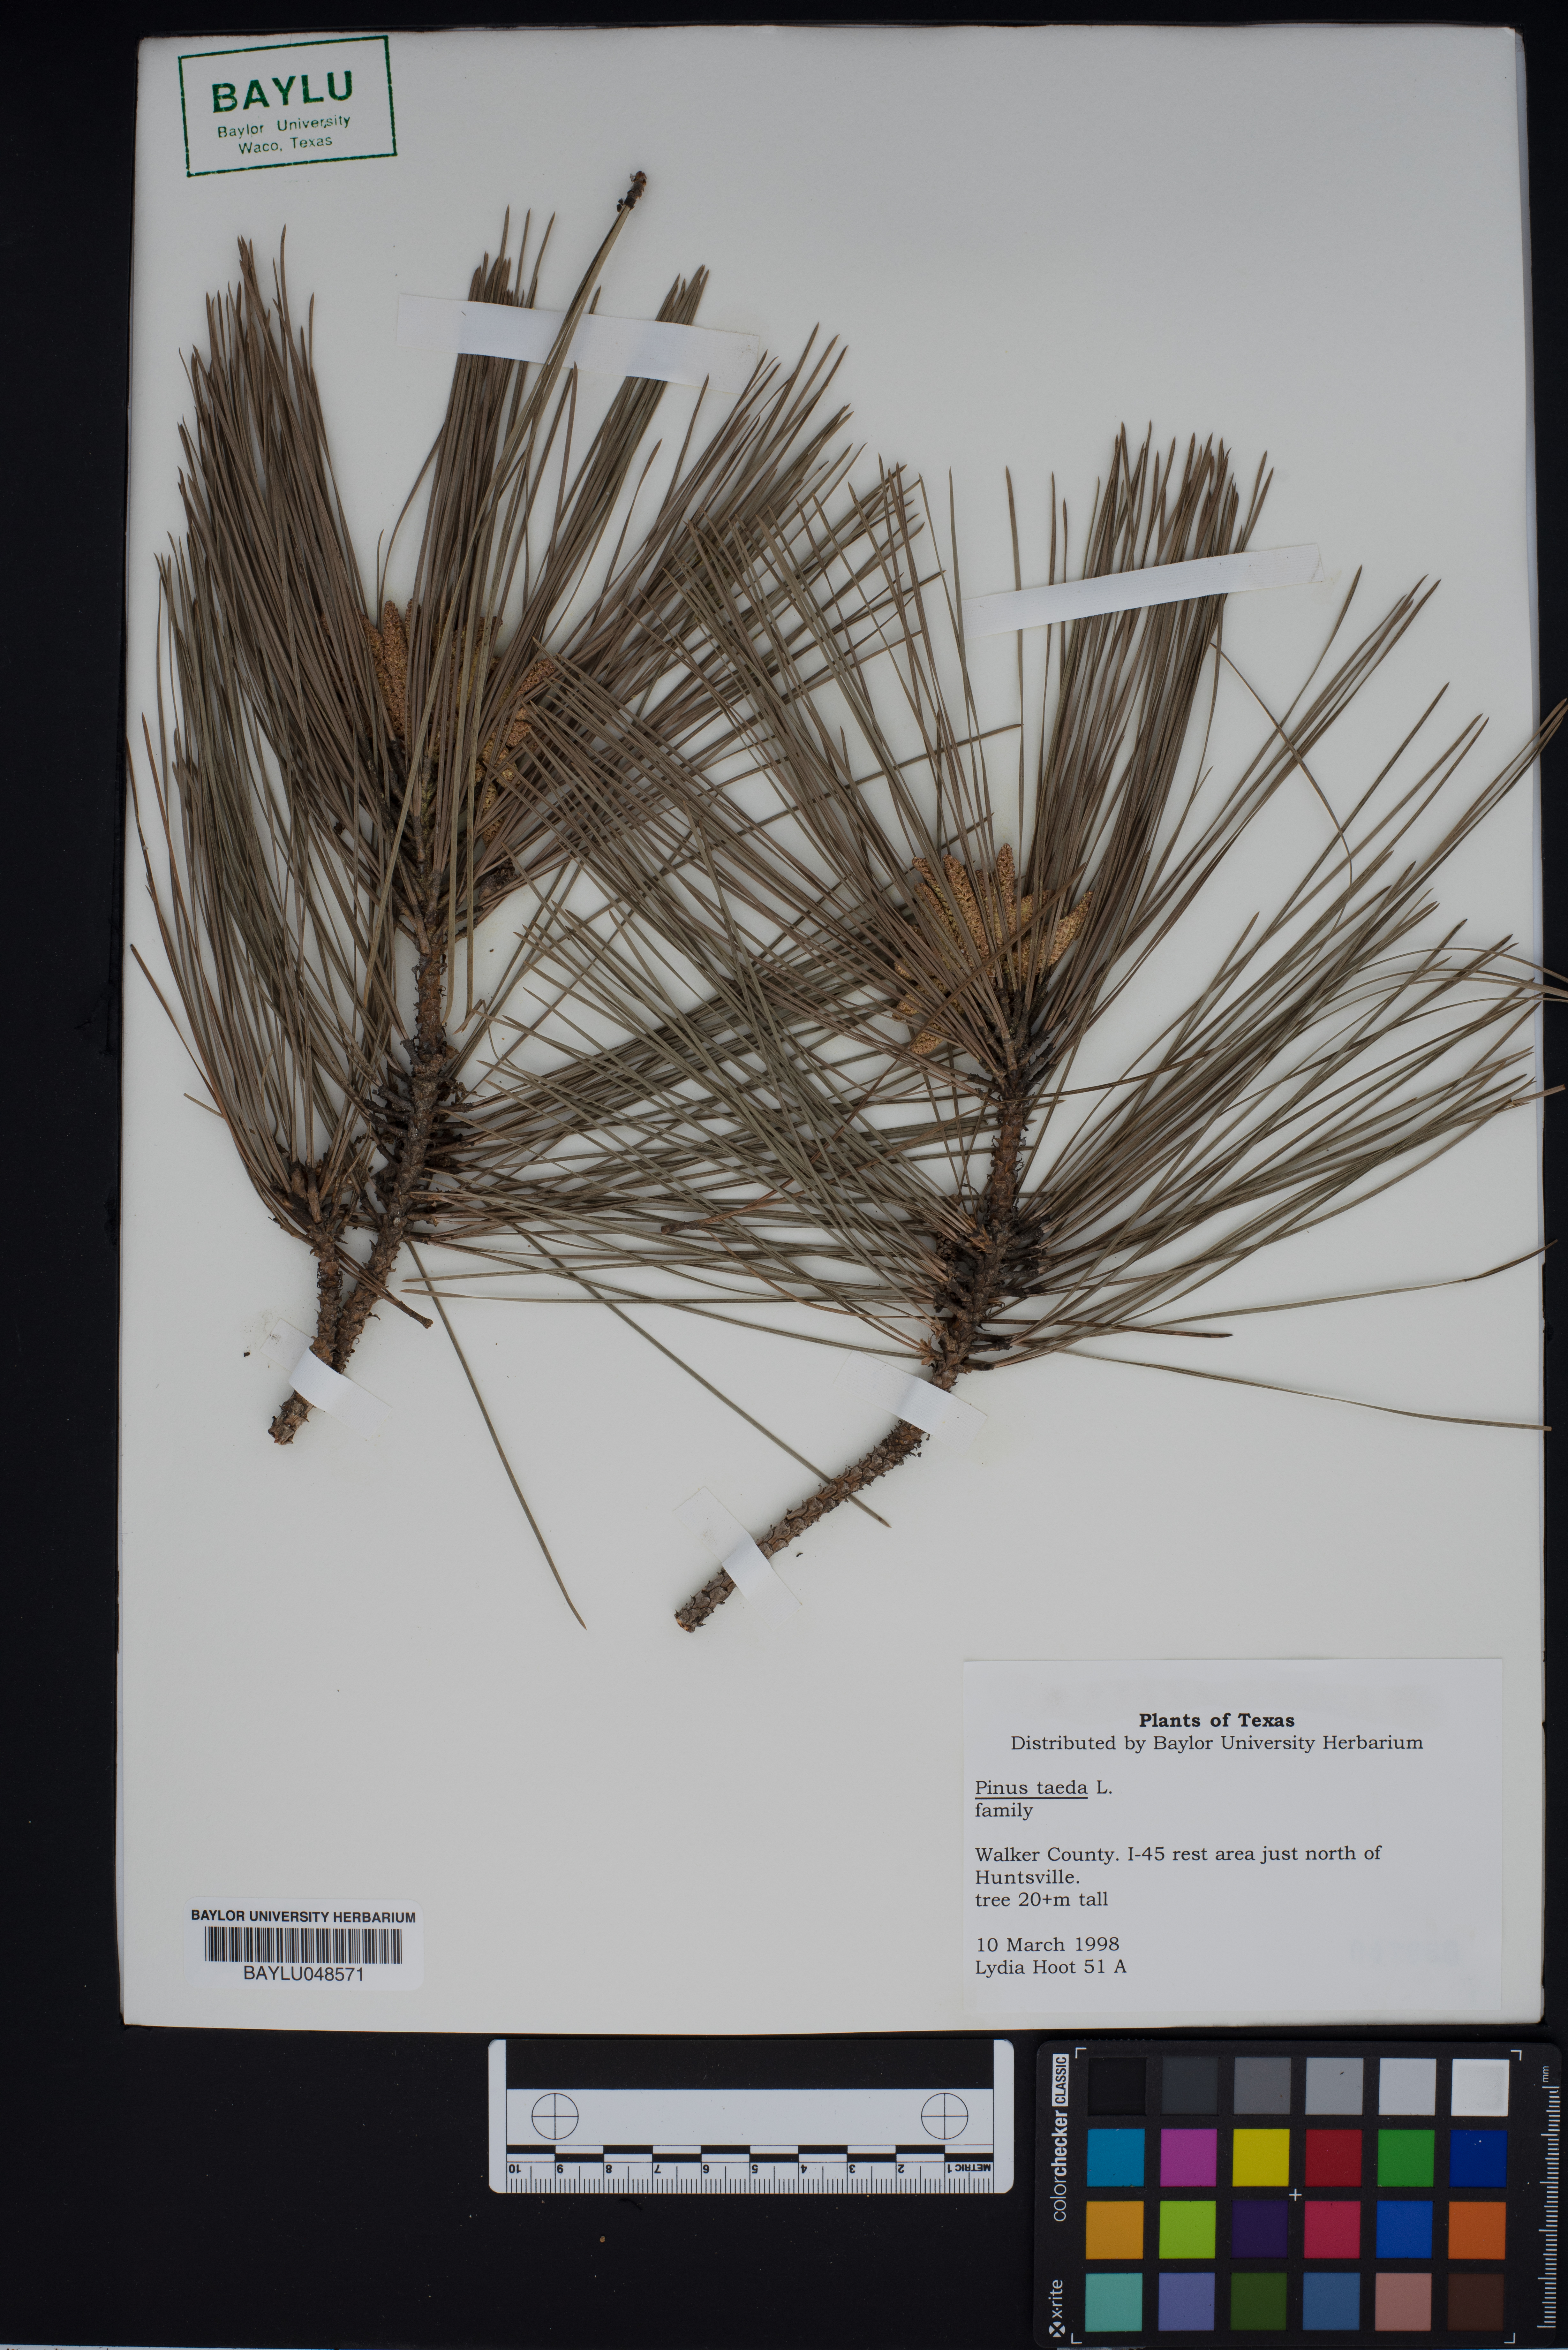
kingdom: Plantae
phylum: Tracheophyta
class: Pinopsida
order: Pinales
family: Pinaceae
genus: Pinus
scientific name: Pinus taeda
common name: Loblolly pine
